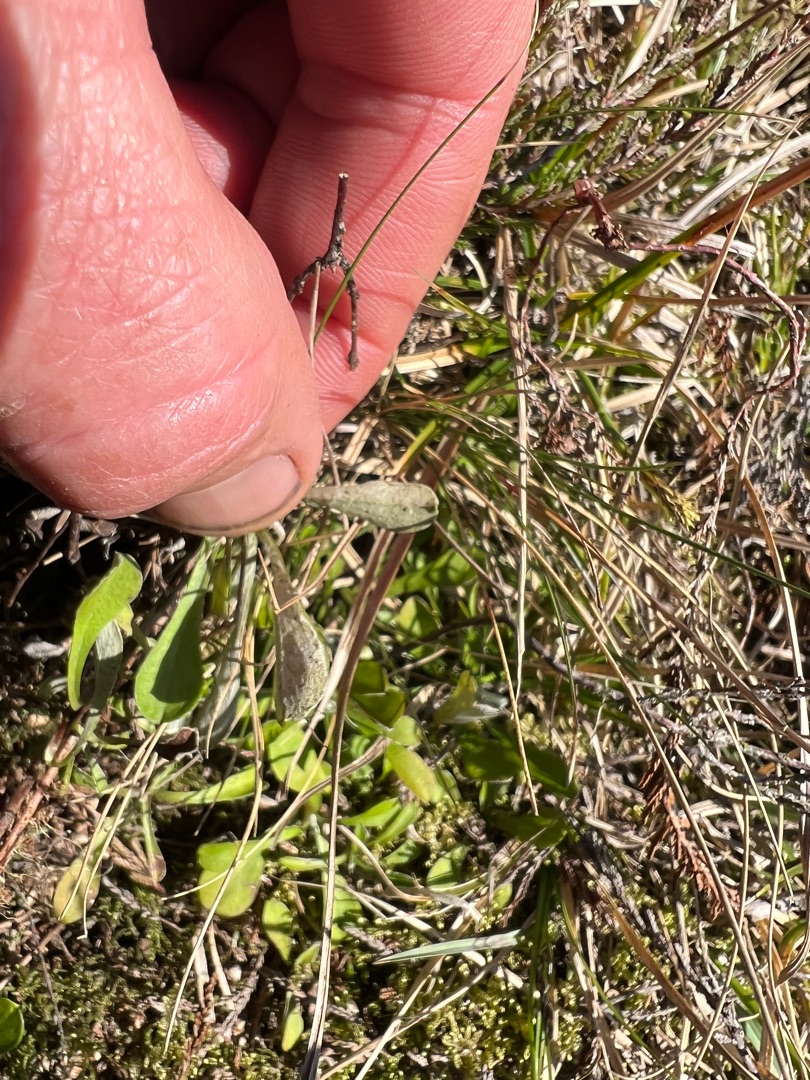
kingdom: Plantae
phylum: Tracheophyta
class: Magnoliopsida
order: Asterales
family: Asteraceae
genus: Antennaria
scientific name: Antennaria dioica
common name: Kattefod
